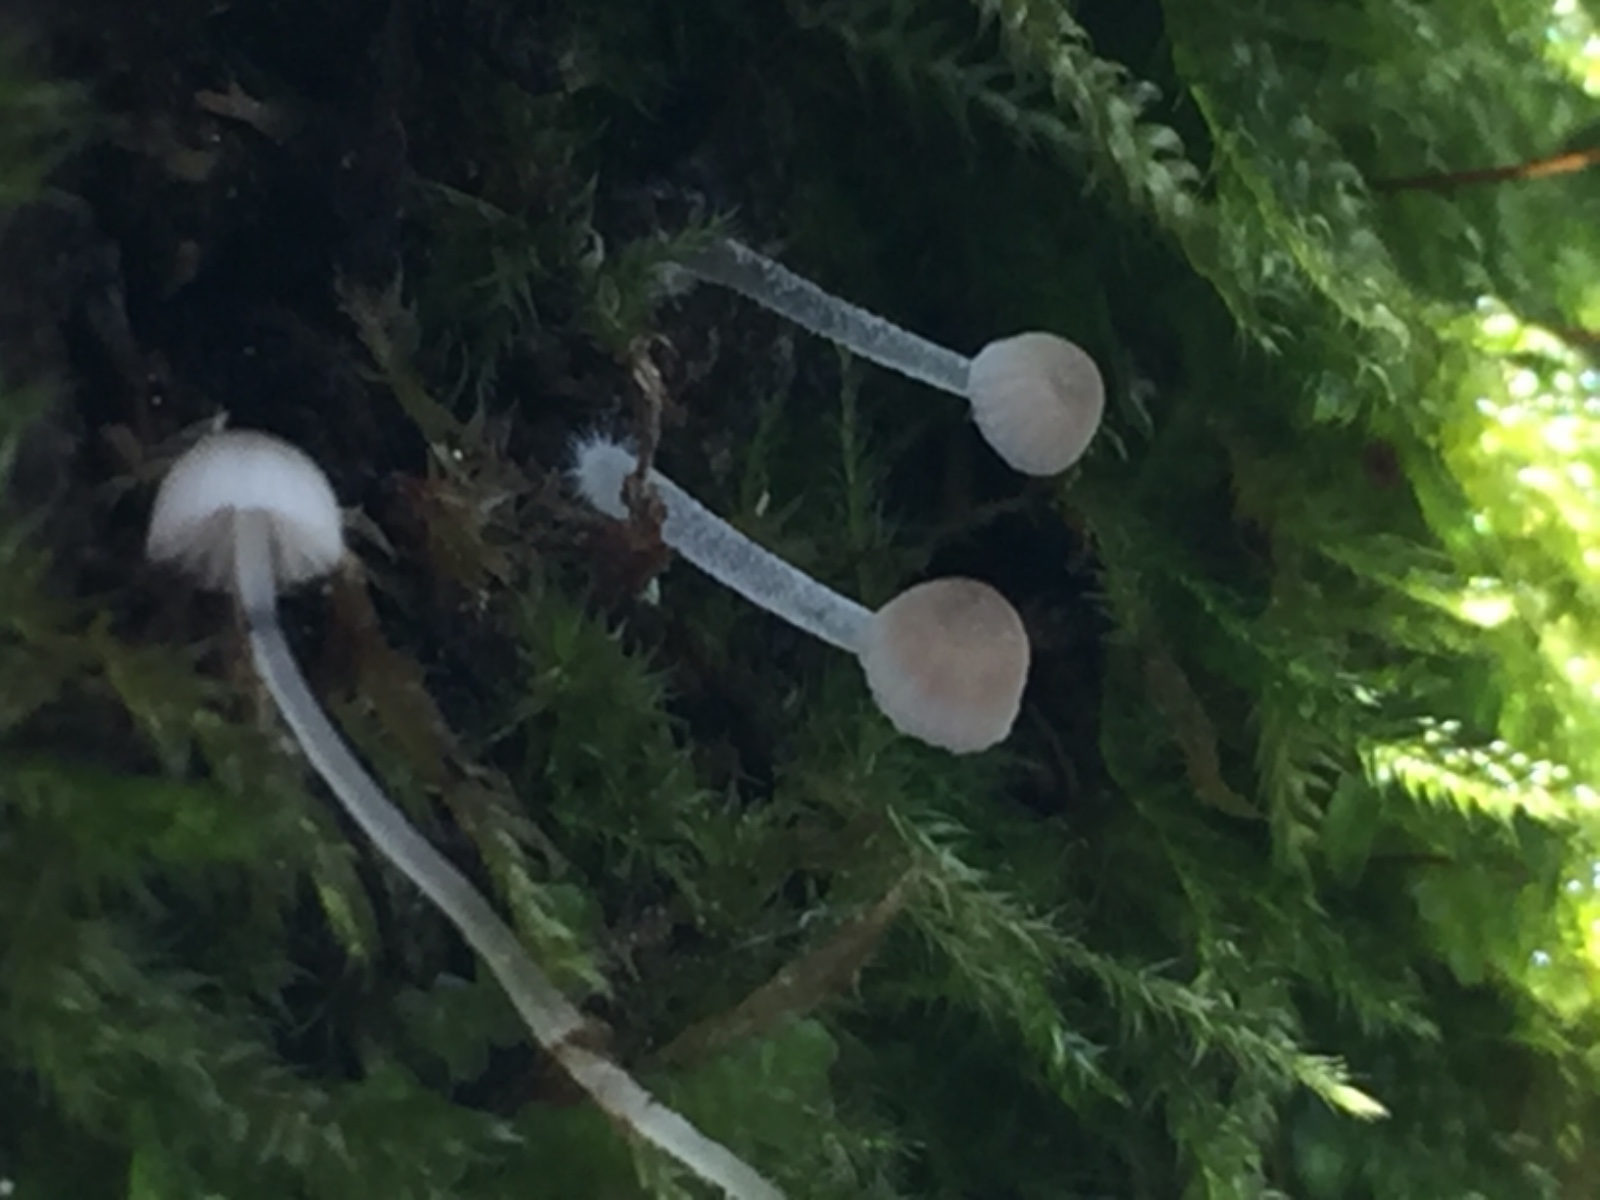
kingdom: Fungi
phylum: Basidiomycota
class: Agaricomycetes
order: Agaricales
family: Porotheleaceae
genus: Phloeomana
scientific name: Phloeomana hiemalis
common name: sen huesvamp
